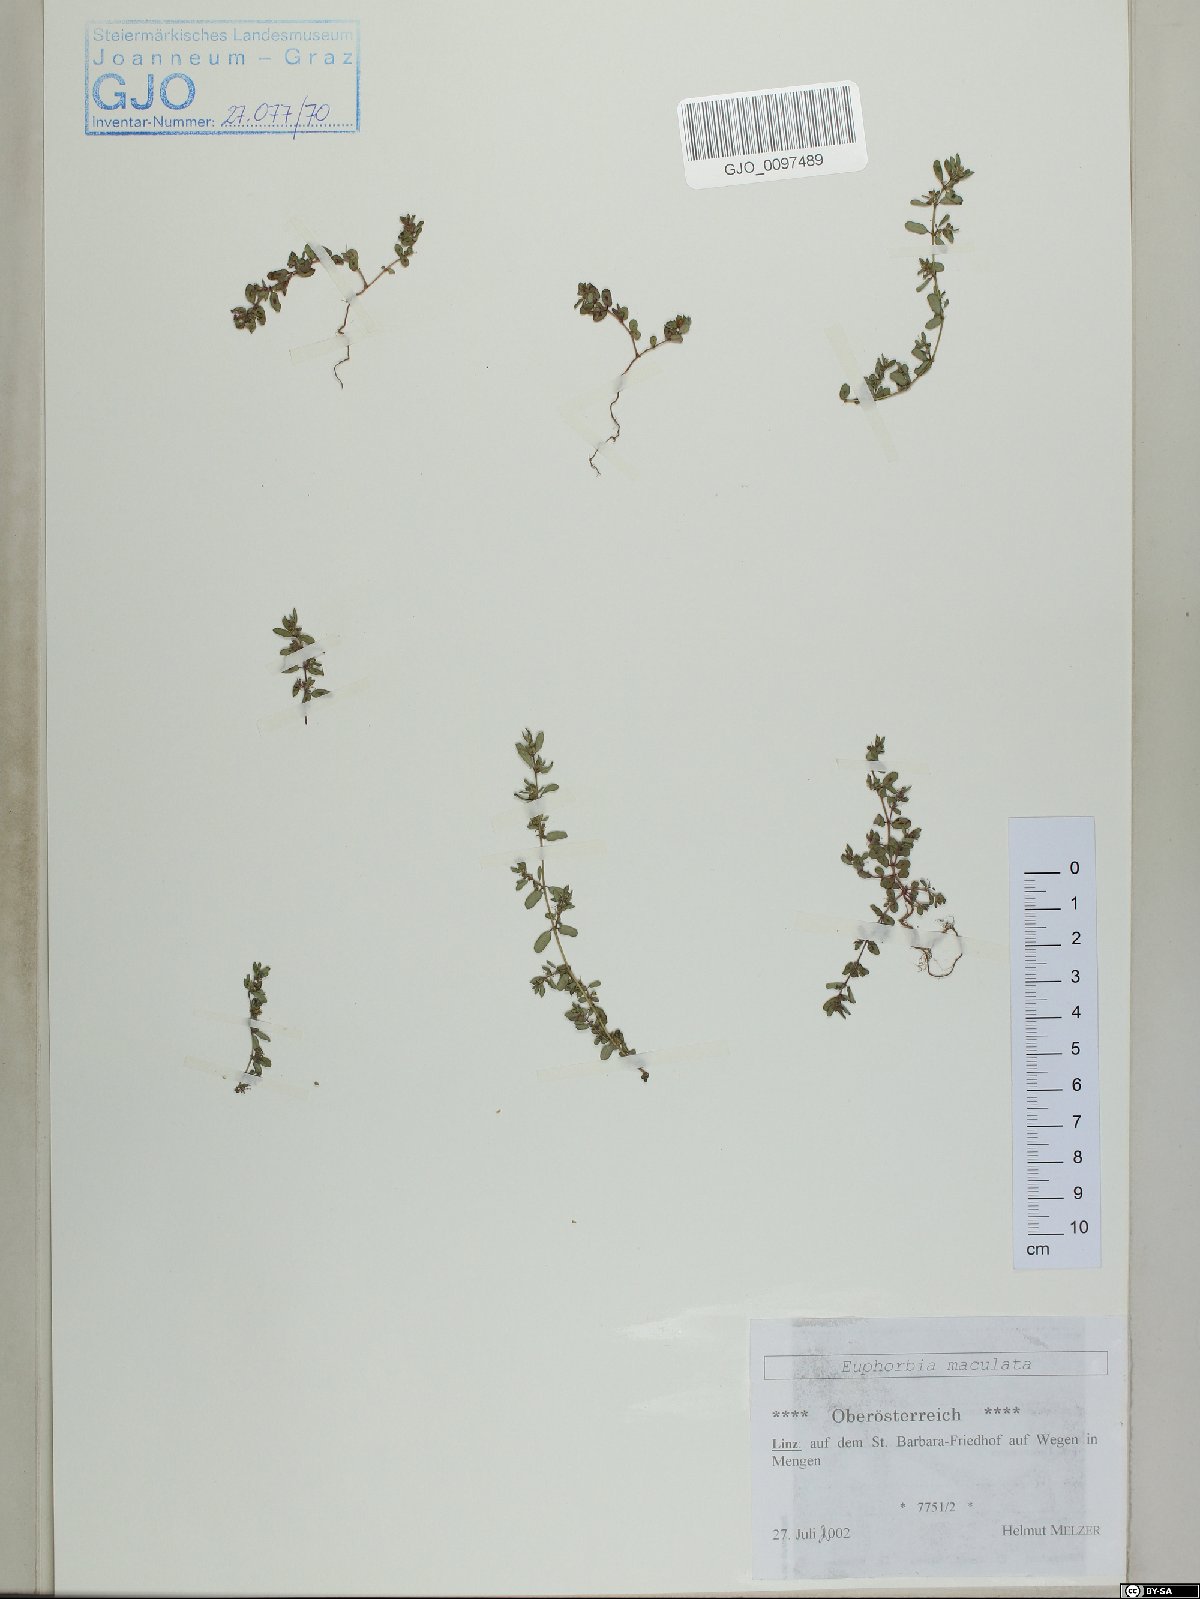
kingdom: Plantae
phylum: Tracheophyta
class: Magnoliopsida
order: Malpighiales
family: Euphorbiaceae
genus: Euphorbia
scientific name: Euphorbia maculata
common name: Spotted spurge
